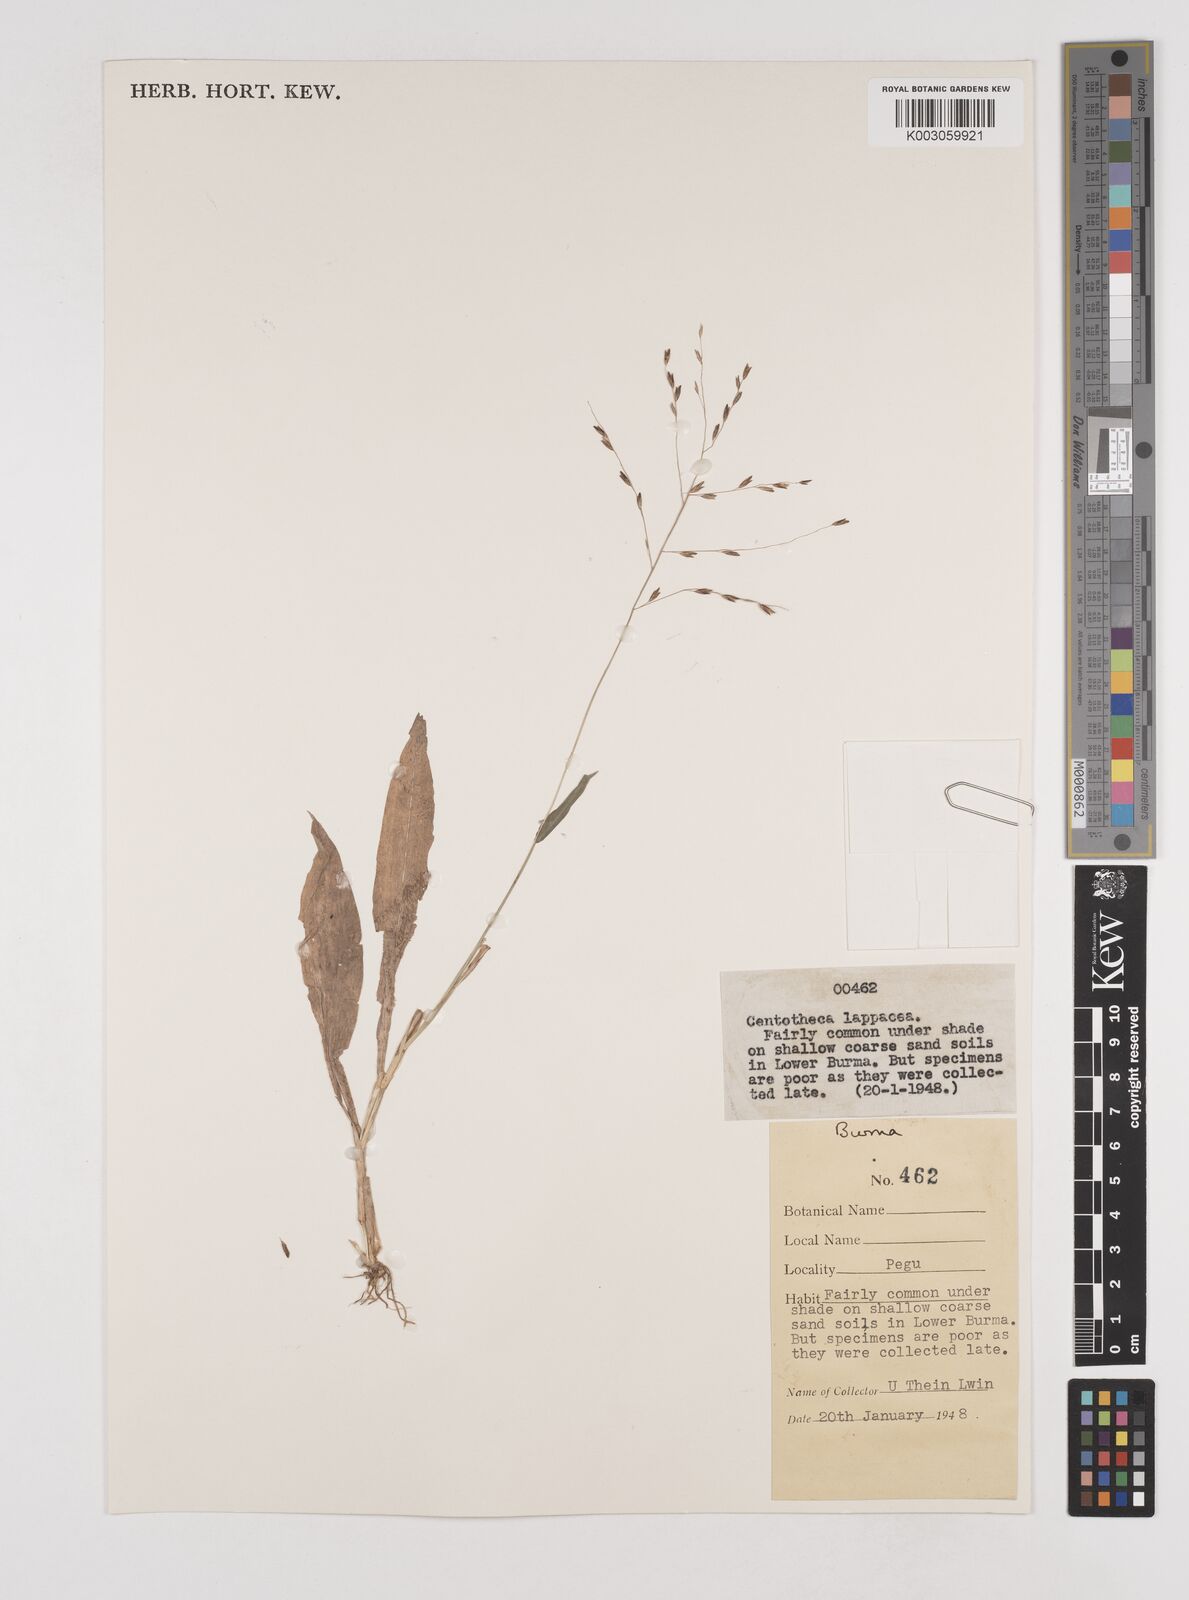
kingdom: Plantae
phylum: Tracheophyta
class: Liliopsida
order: Poales
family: Poaceae
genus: Centotheca
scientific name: Centotheca lappacea
